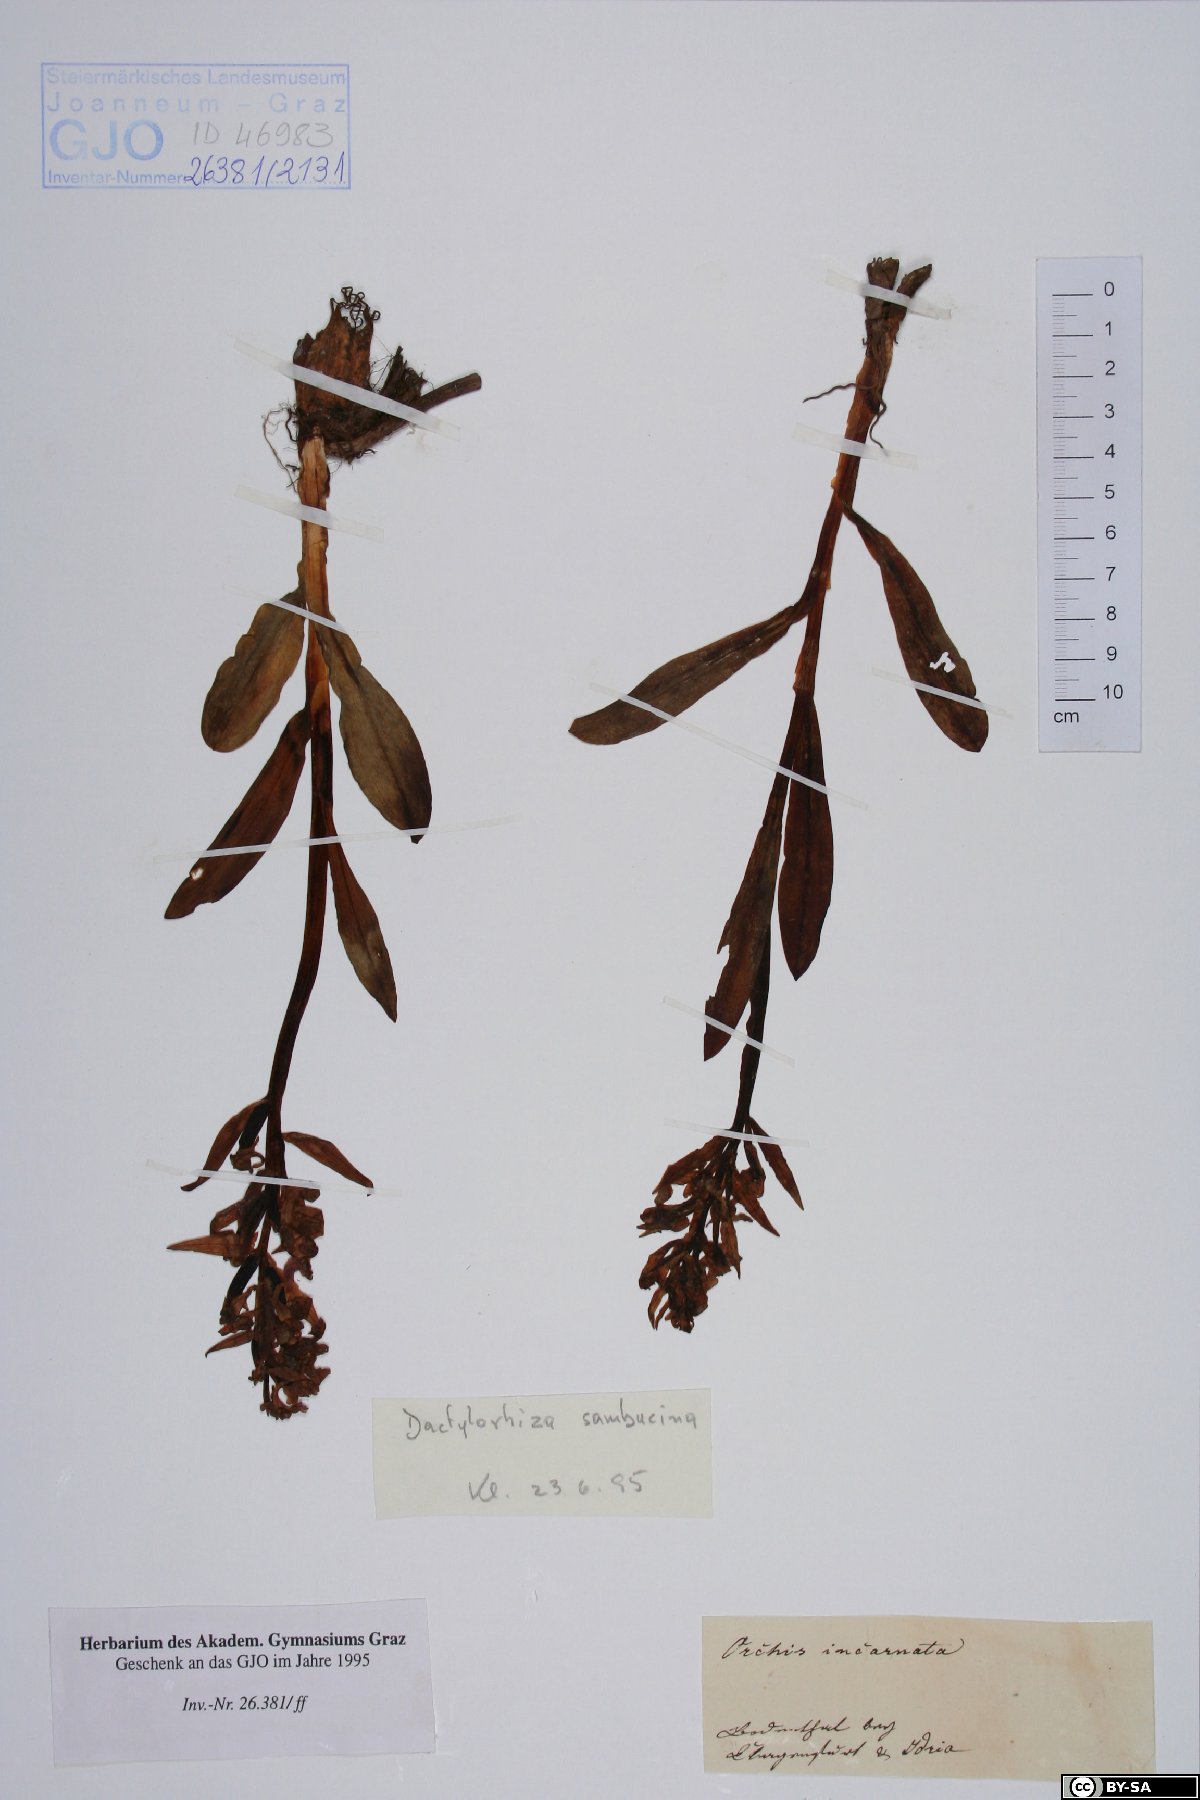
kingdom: Plantae
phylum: Tracheophyta
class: Liliopsida
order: Asparagales
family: Orchidaceae
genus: Dactylorhiza
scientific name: Dactylorhiza sambucina
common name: Elder-flowered orchid
